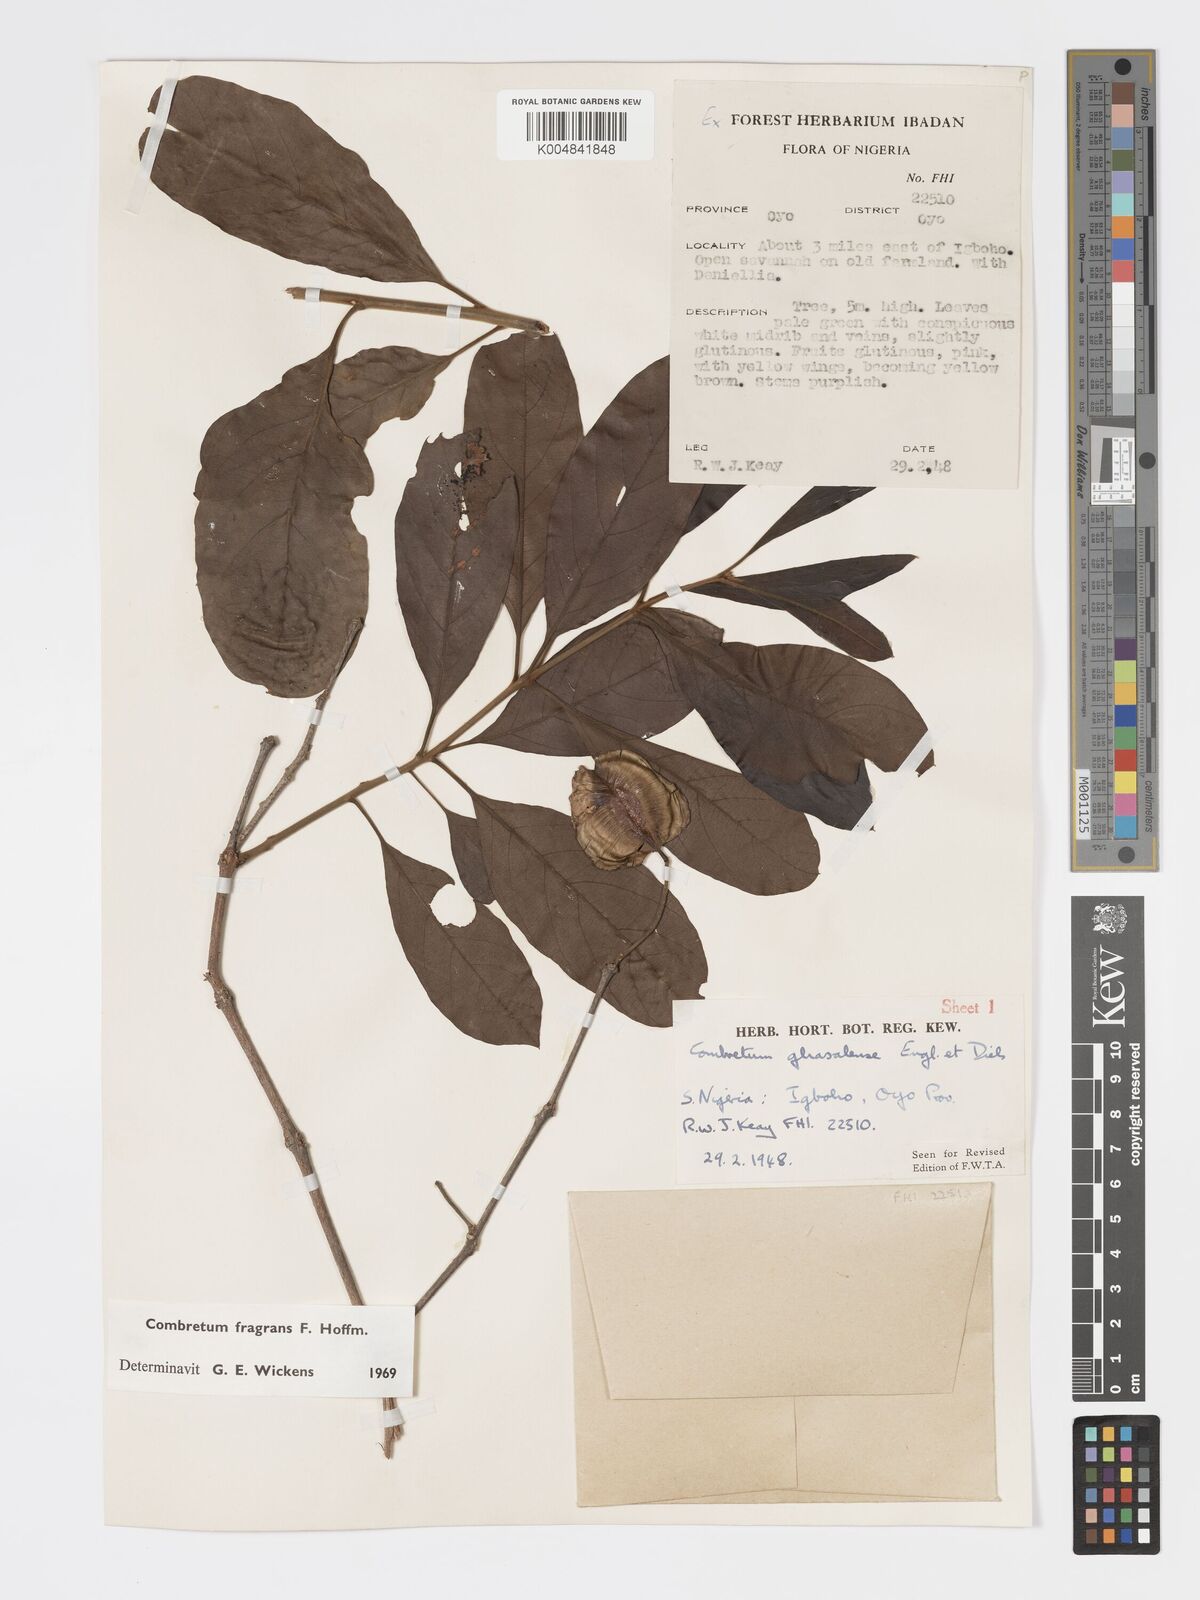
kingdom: Plantae
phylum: Tracheophyta
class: Magnoliopsida
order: Myrtales
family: Combretaceae
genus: Combretum
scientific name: Combretum adenogonium
